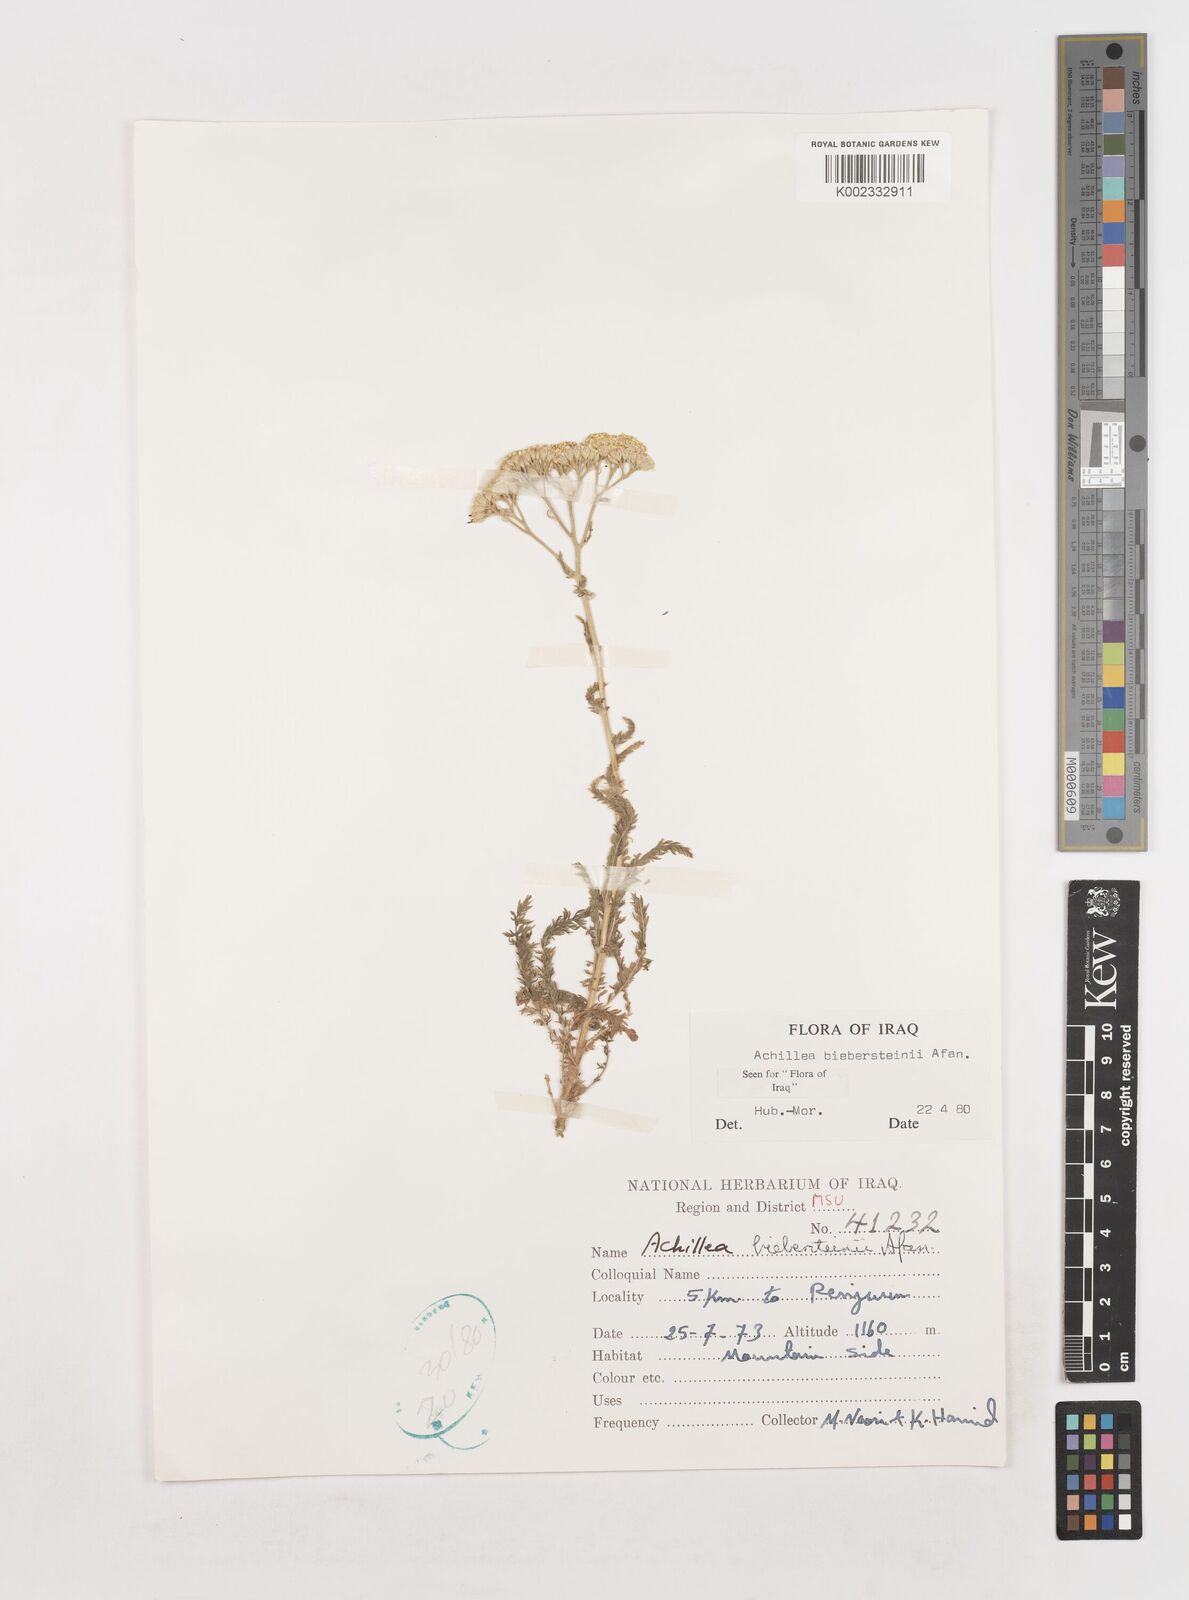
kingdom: Plantae
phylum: Tracheophyta
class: Magnoliopsida
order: Asterales
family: Asteraceae
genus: Achillea
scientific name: Achillea arabica
